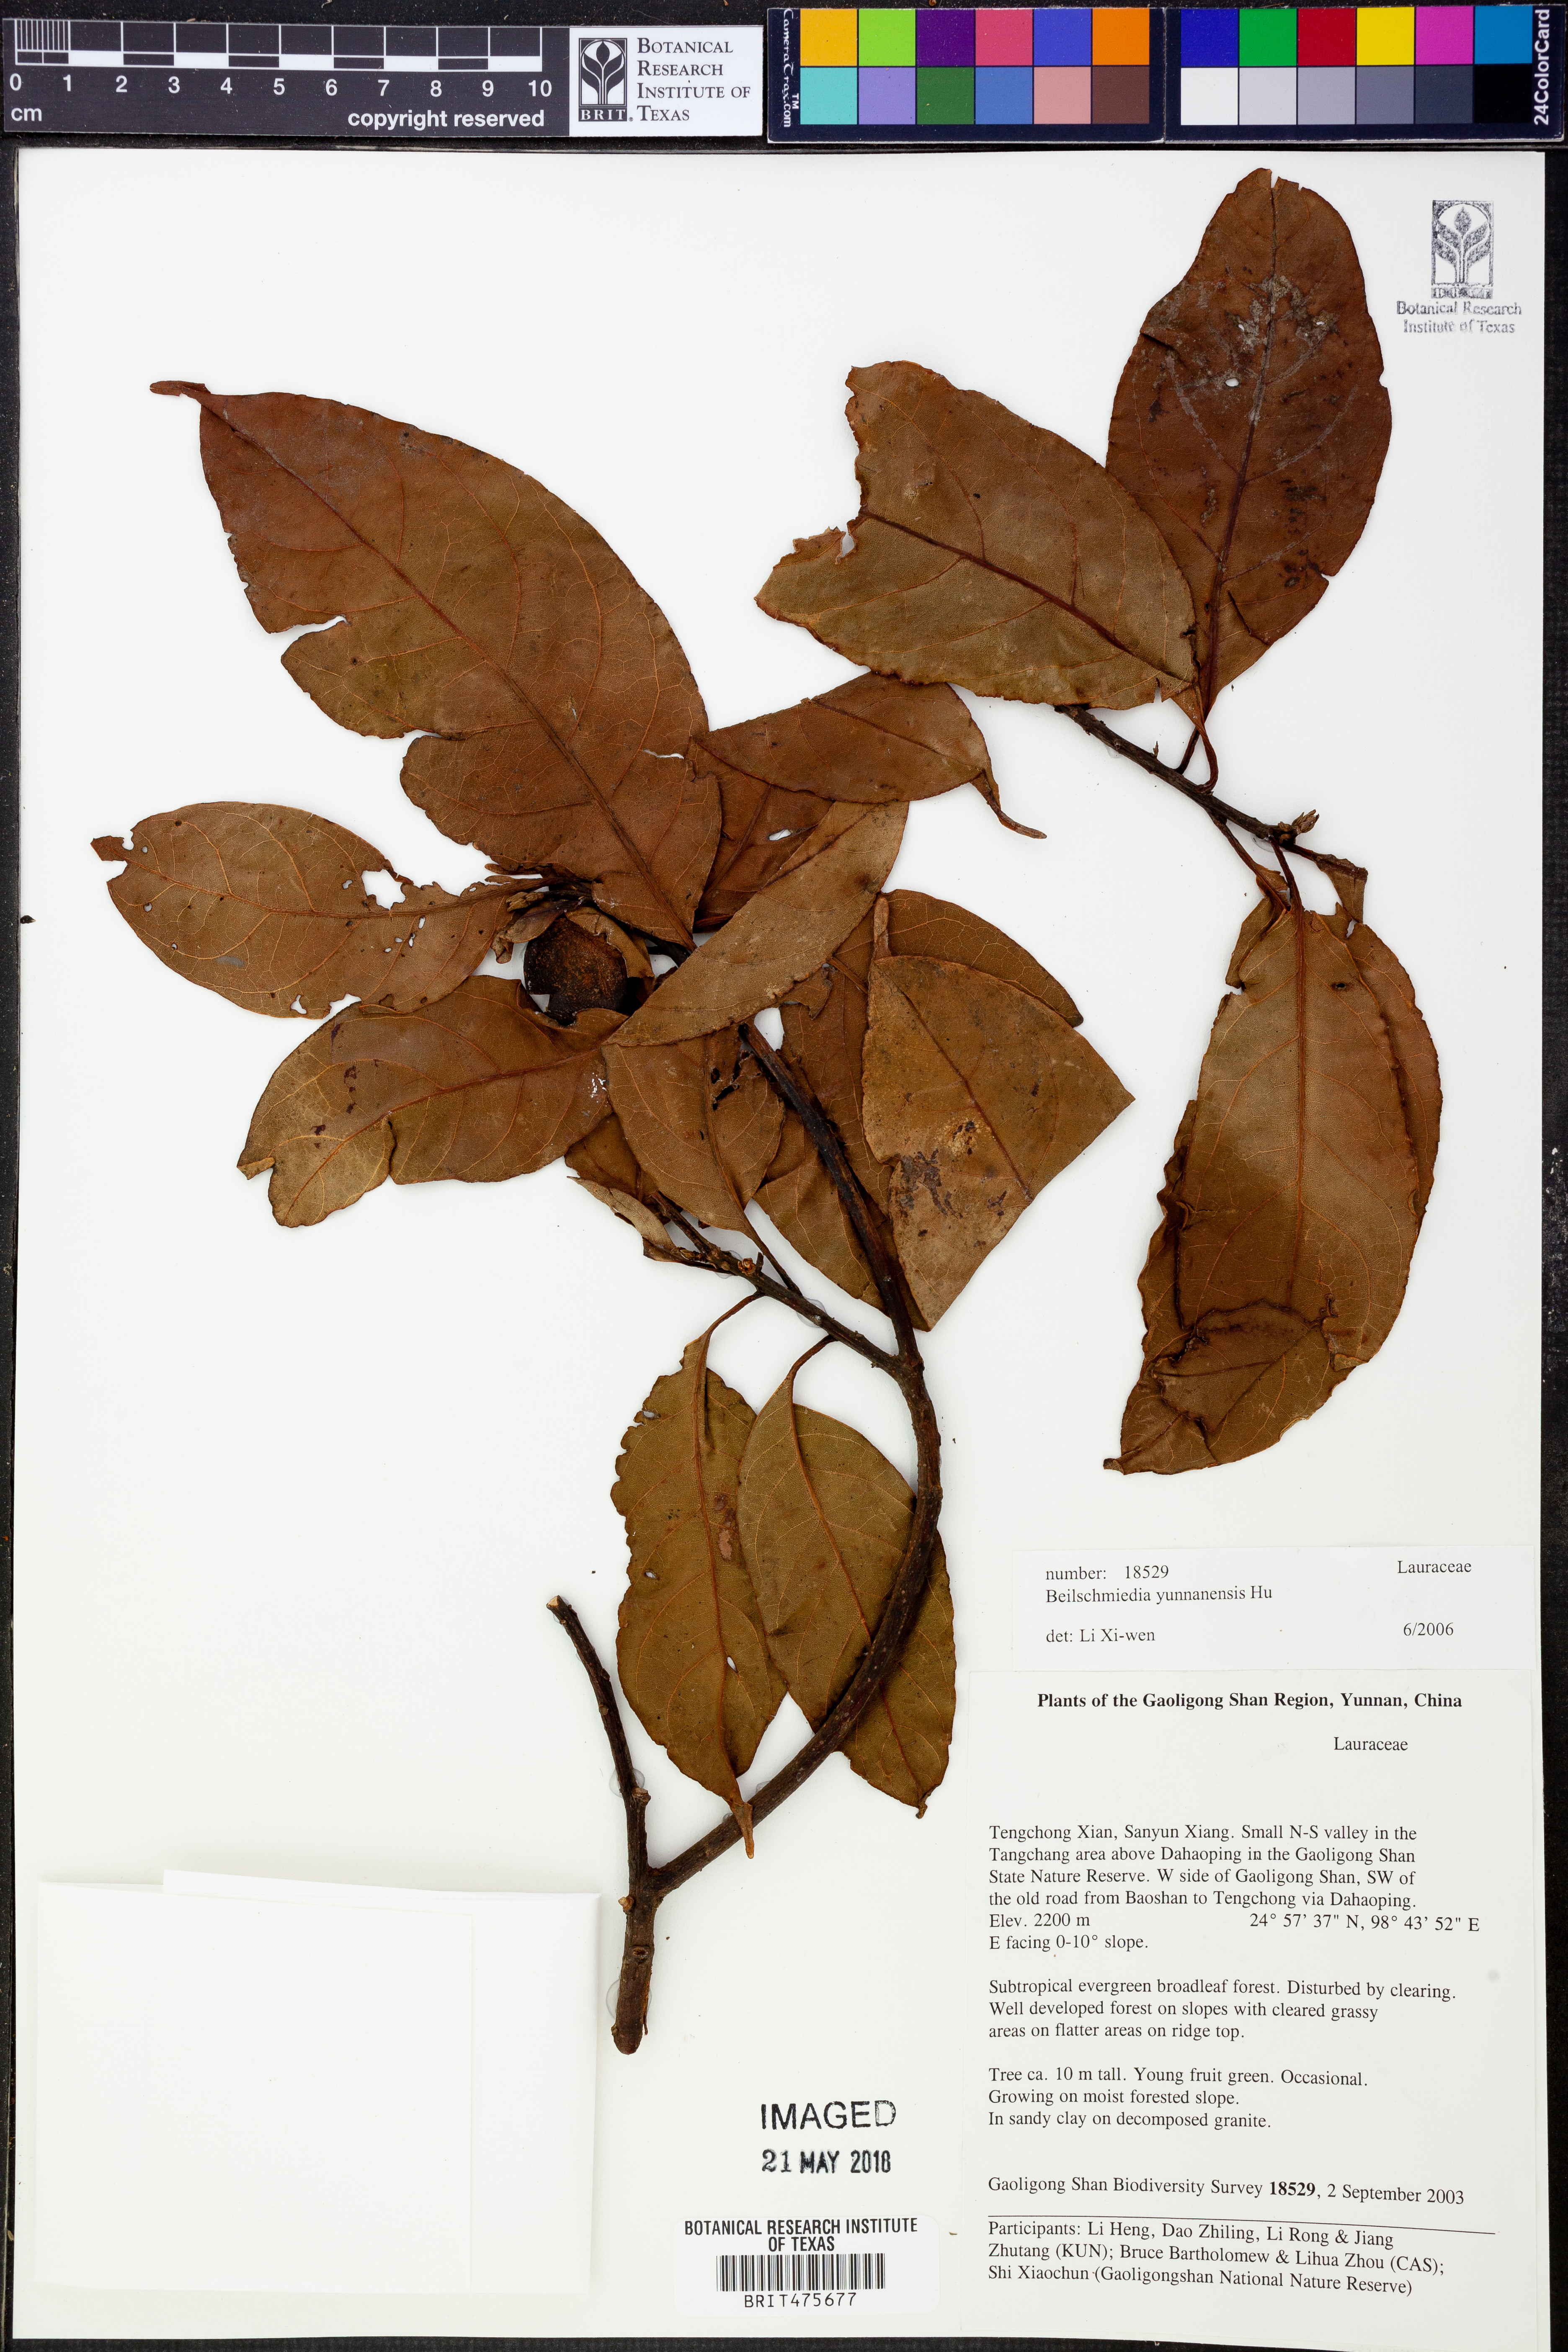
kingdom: Plantae
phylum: Tracheophyta
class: Magnoliopsida
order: Laurales
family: Lauraceae
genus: Beilschmiedia
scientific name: Beilschmiedia yunnanensis
